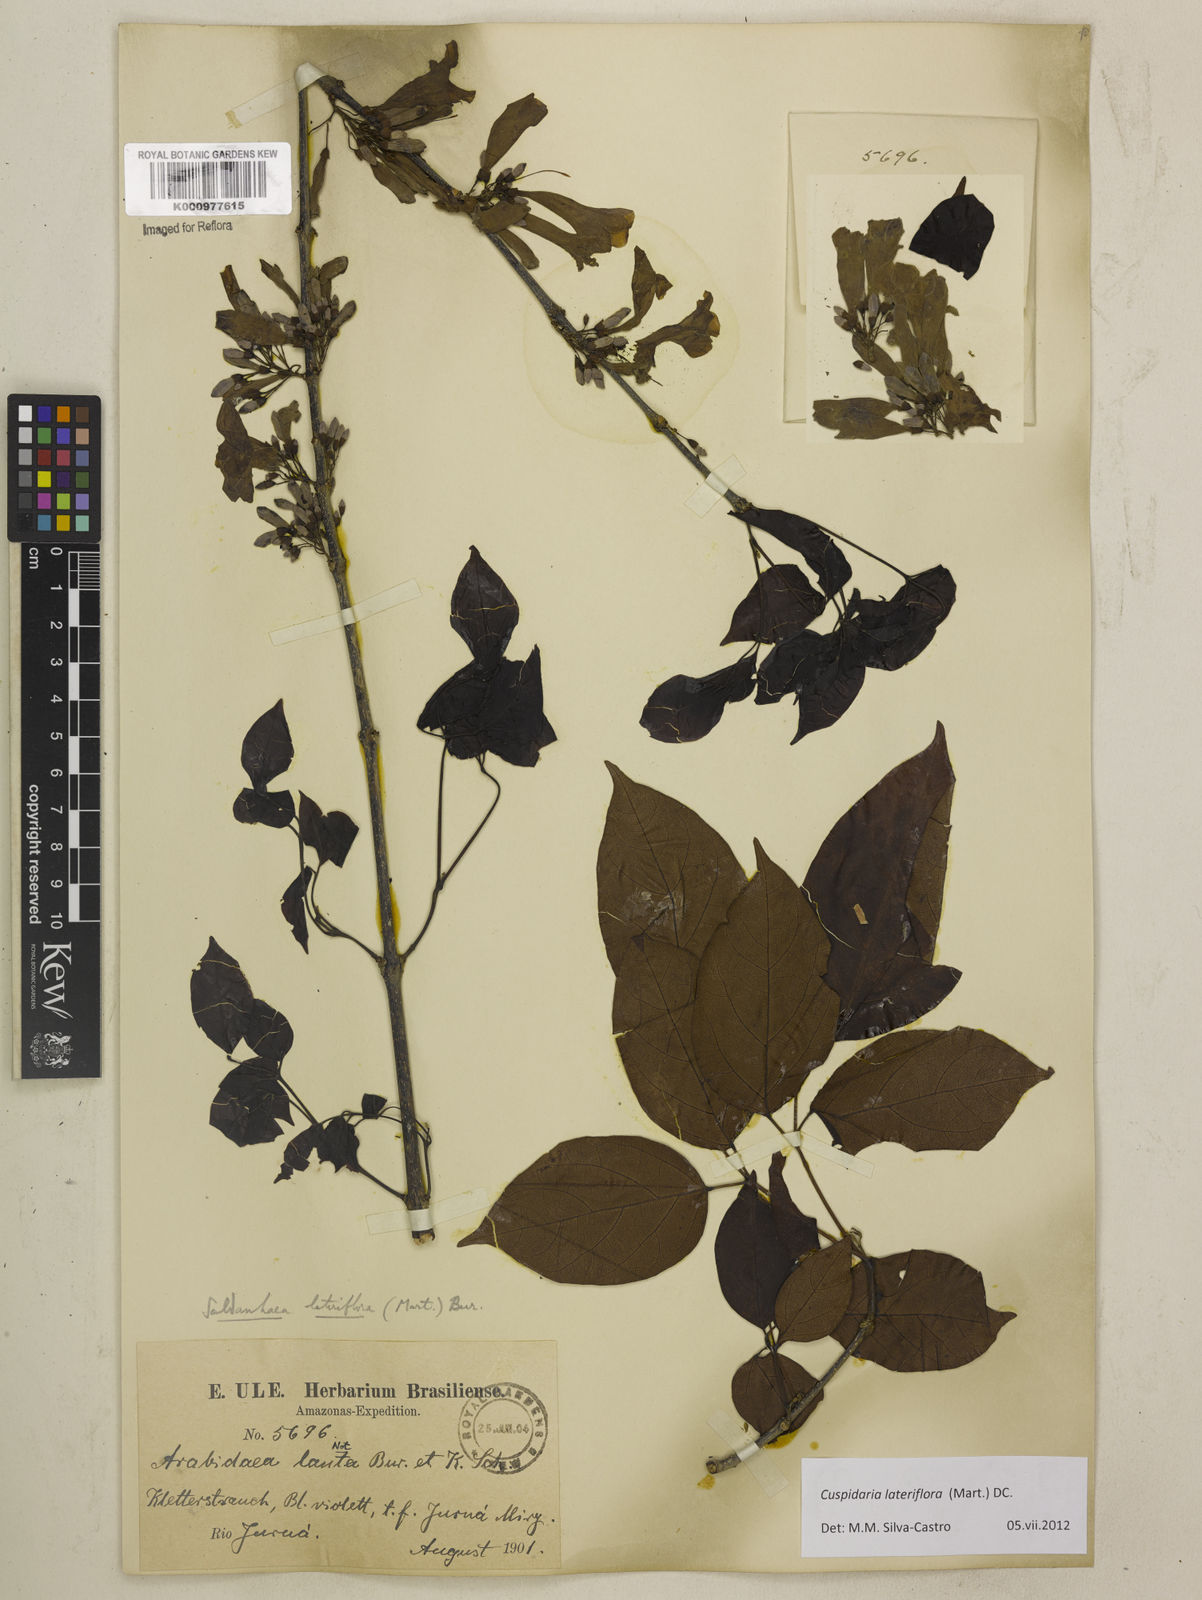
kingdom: Plantae
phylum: Tracheophyta
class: Magnoliopsida
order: Lamiales
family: Bignoniaceae
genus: Cuspidaria
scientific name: Cuspidaria lateriflora
